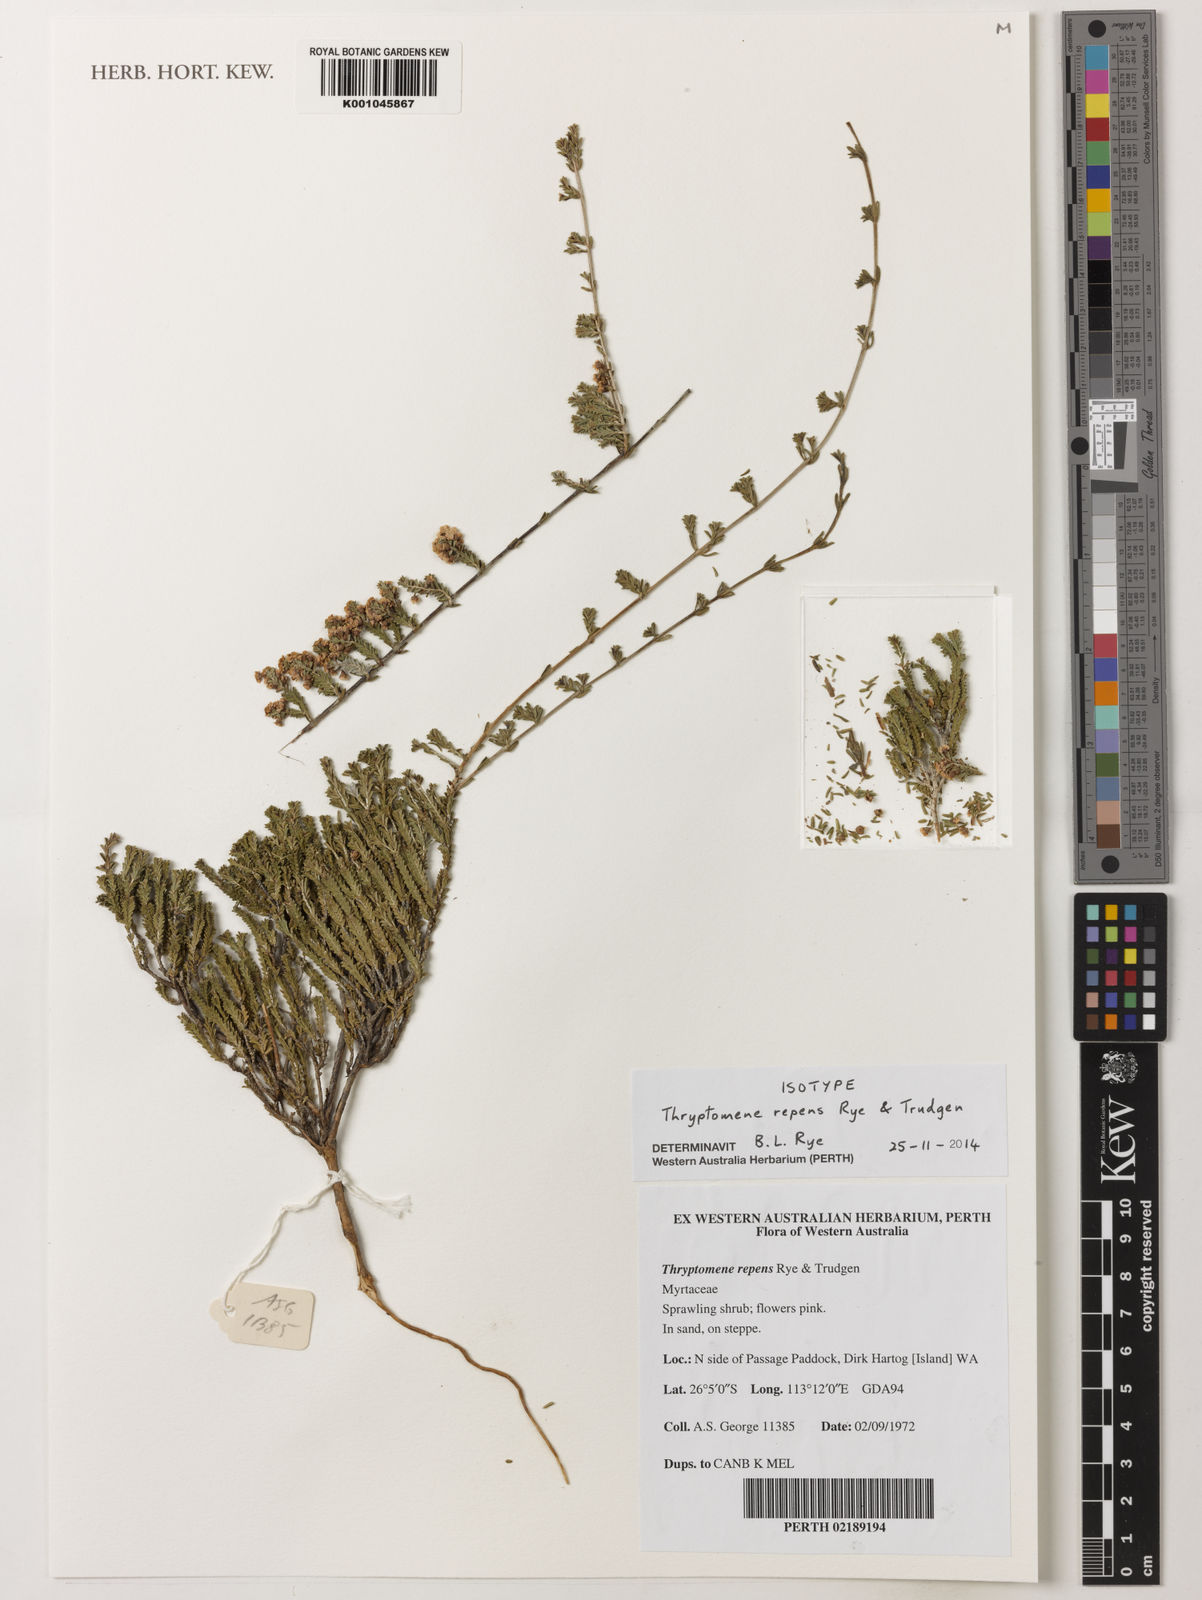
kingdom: Plantae
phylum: Tracheophyta
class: Magnoliopsida
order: Myrtales
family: Myrtaceae
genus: Thryptomene
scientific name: Thryptomene repens
